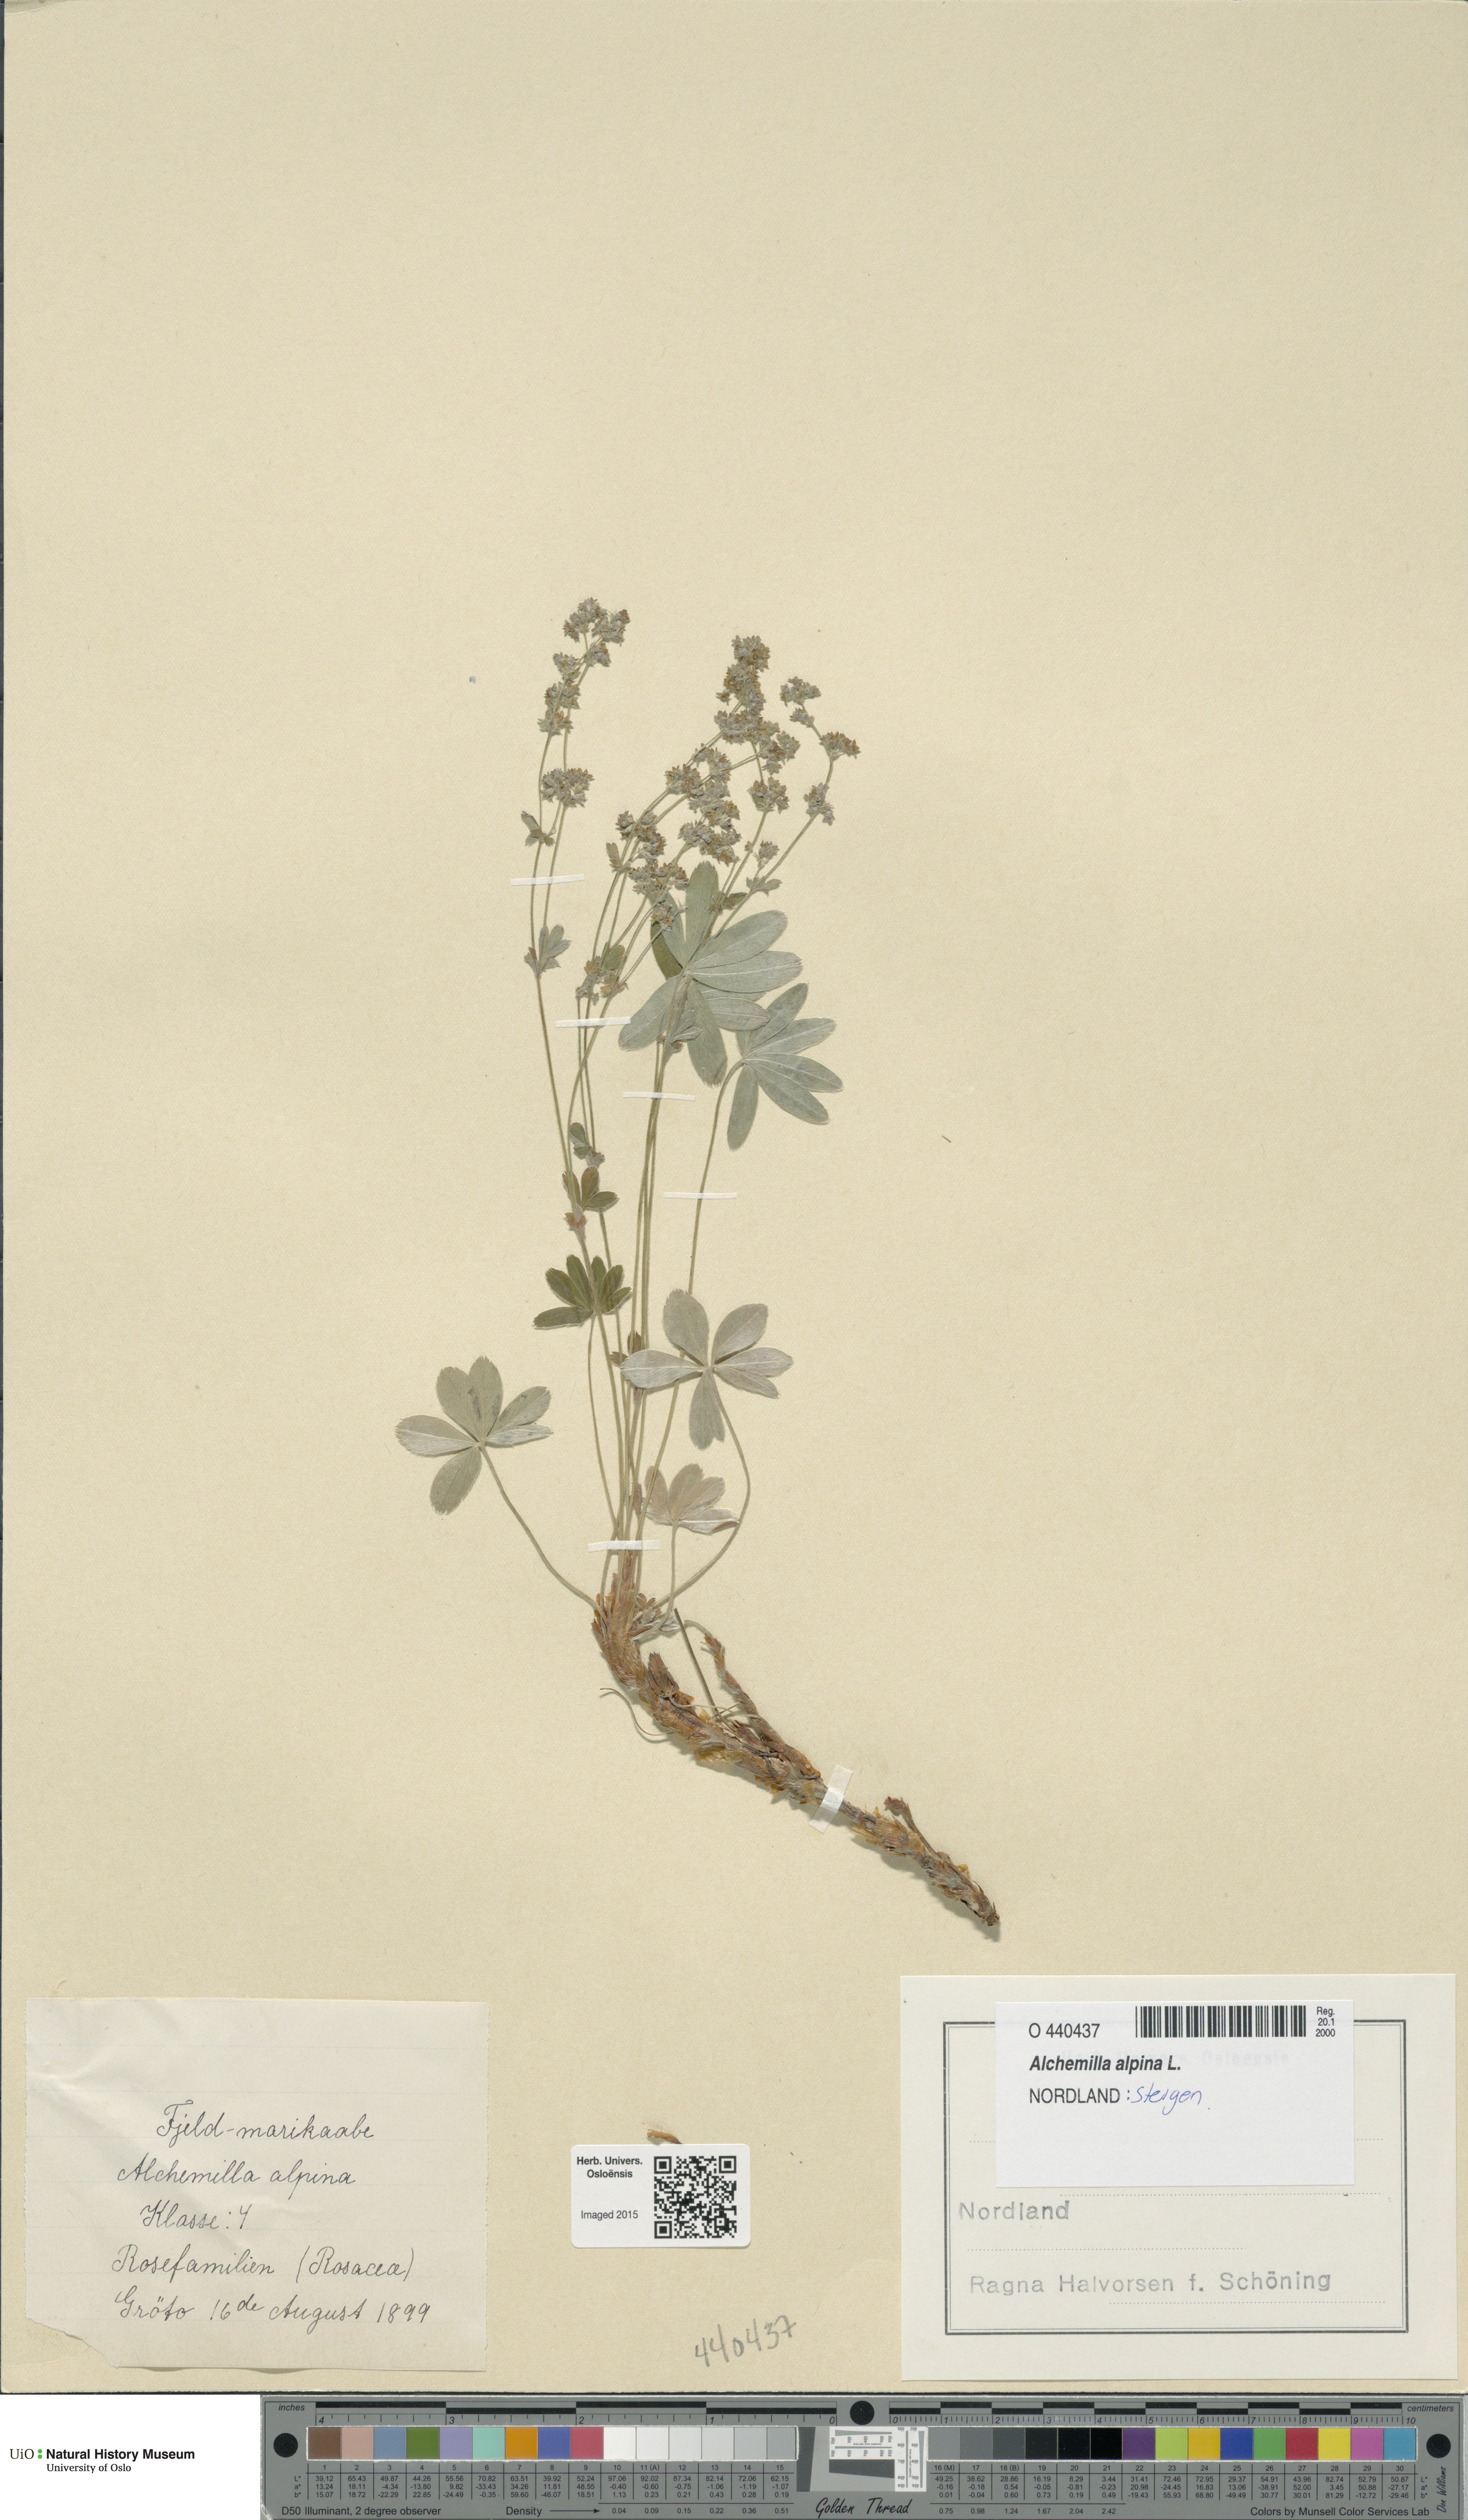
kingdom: Plantae
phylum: Tracheophyta
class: Magnoliopsida
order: Rosales
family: Rosaceae
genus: Alchemilla
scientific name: Alchemilla alpina
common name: Alpine lady's-mantle
